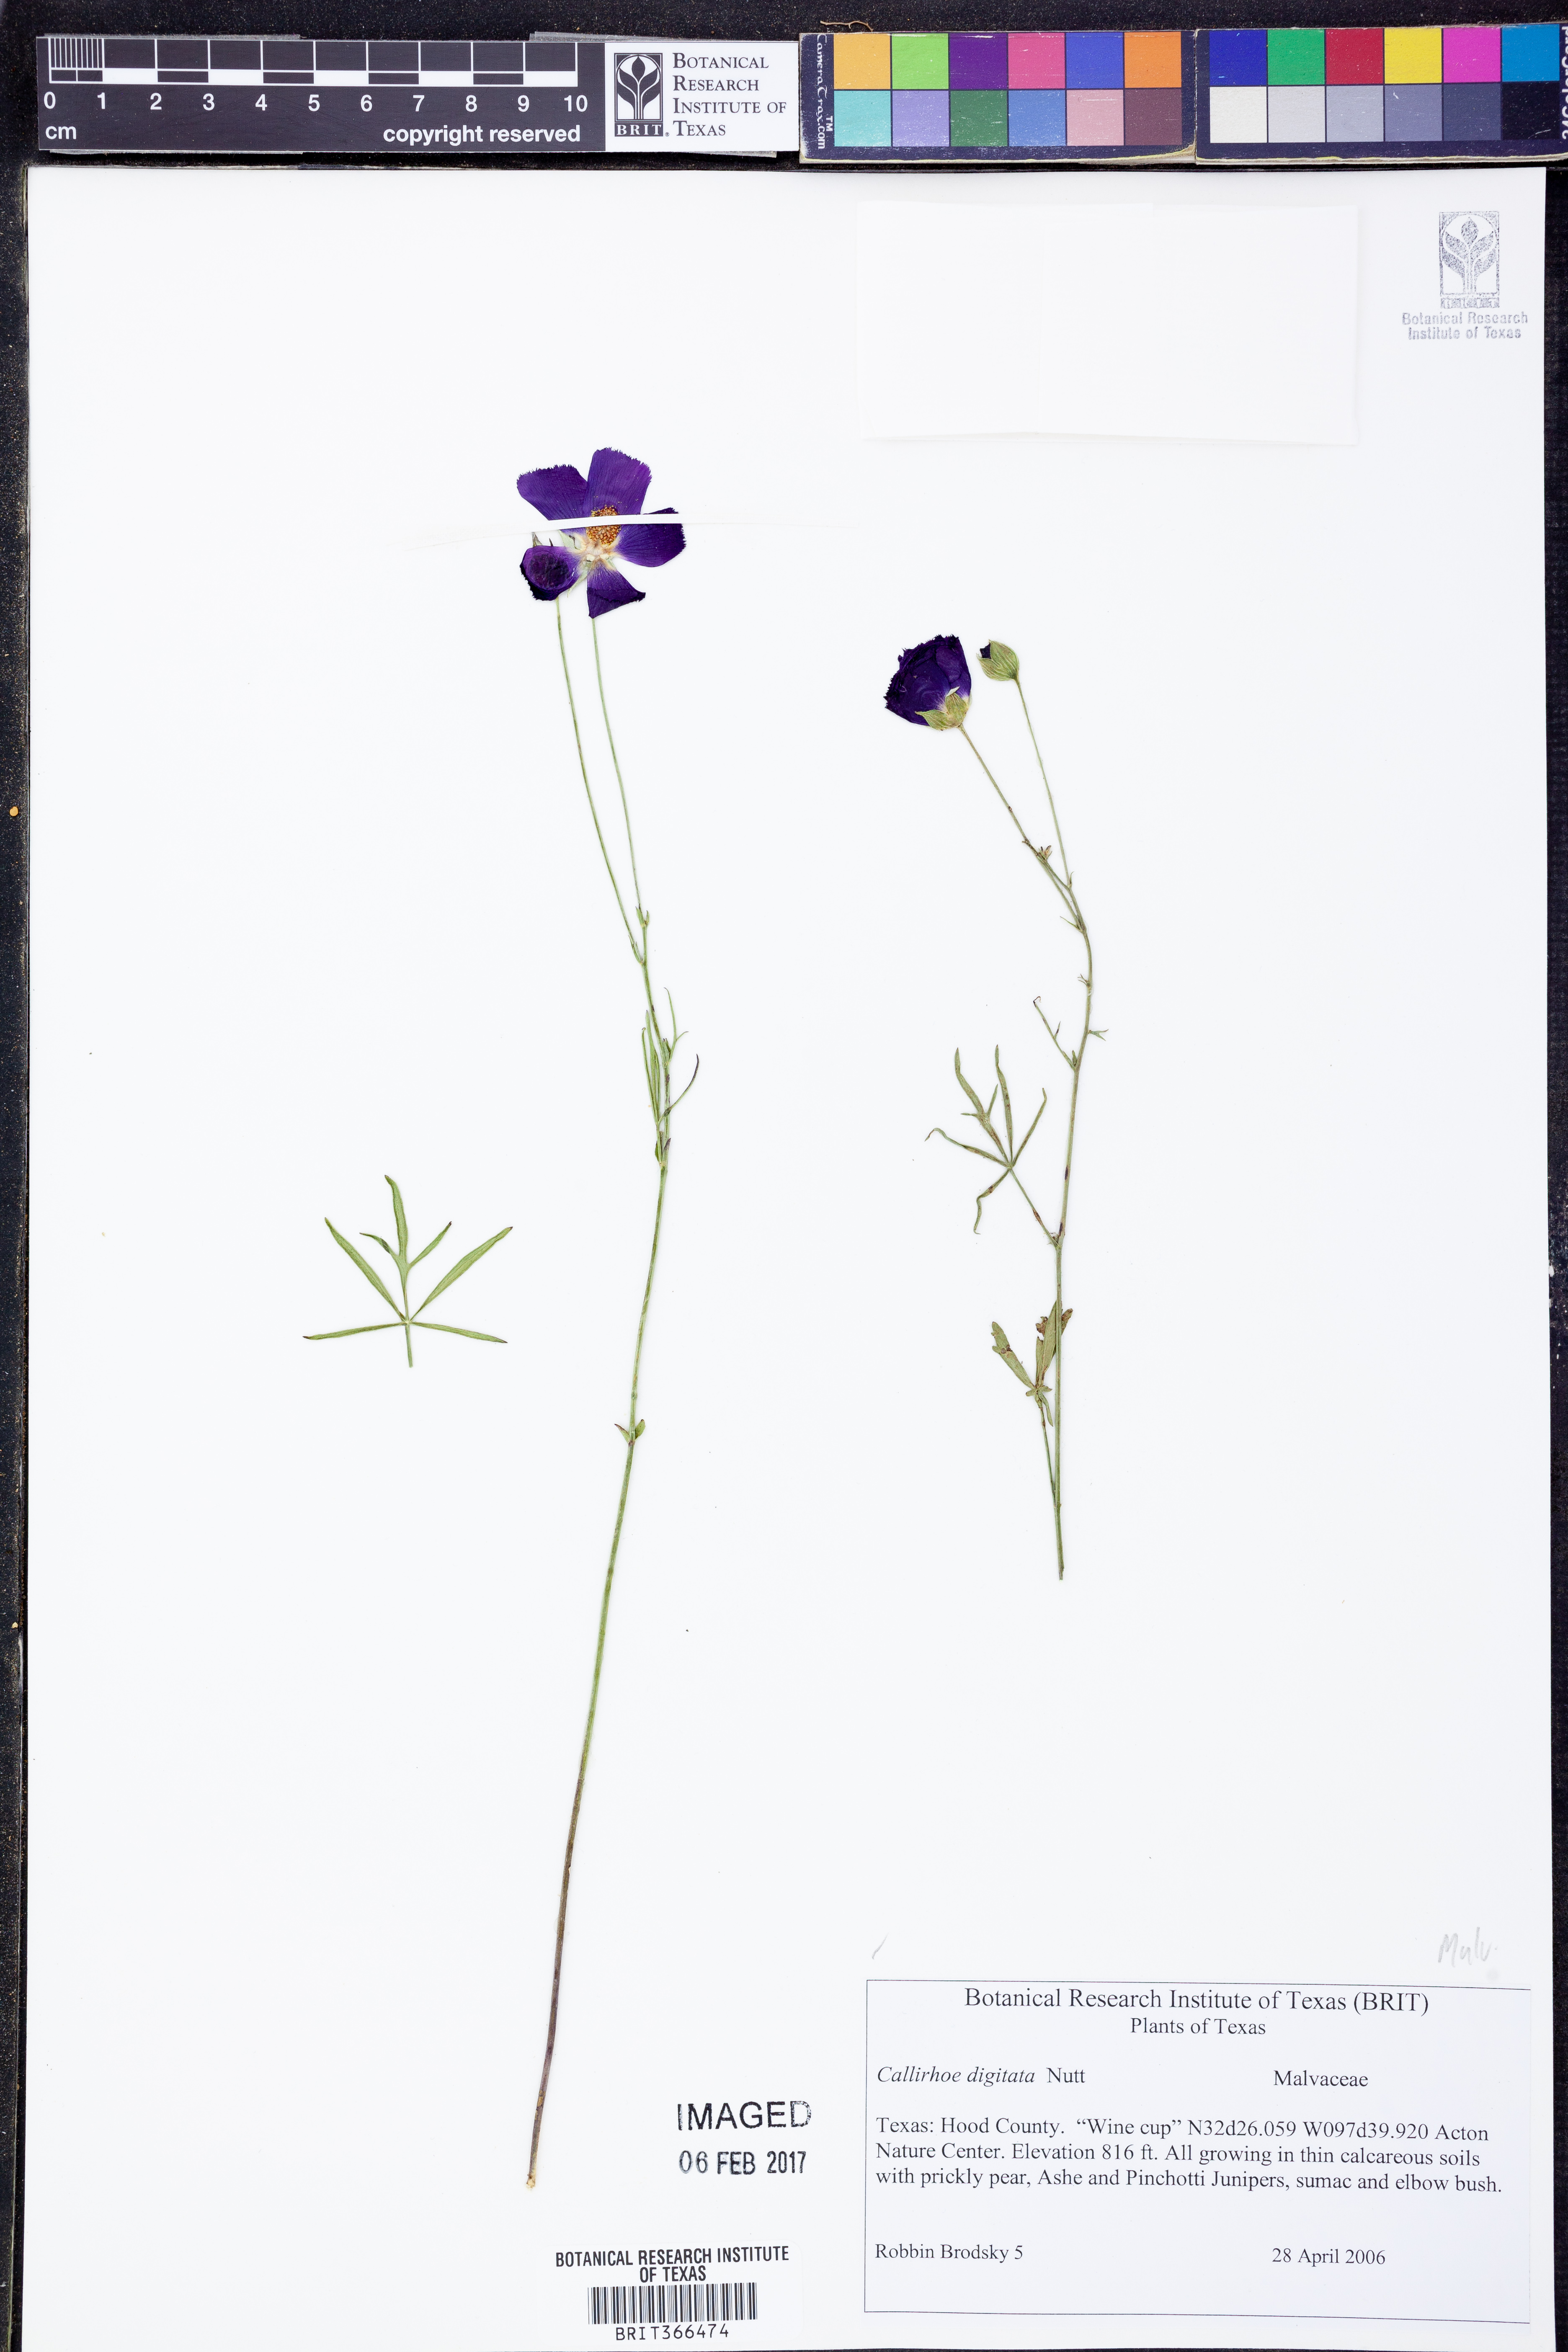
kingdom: Plantae
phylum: Tracheophyta
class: Magnoliopsida
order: Malvales
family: Malvaceae
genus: Callirhoe
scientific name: Callirhoe digitata
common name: Finger poppy-mallow
